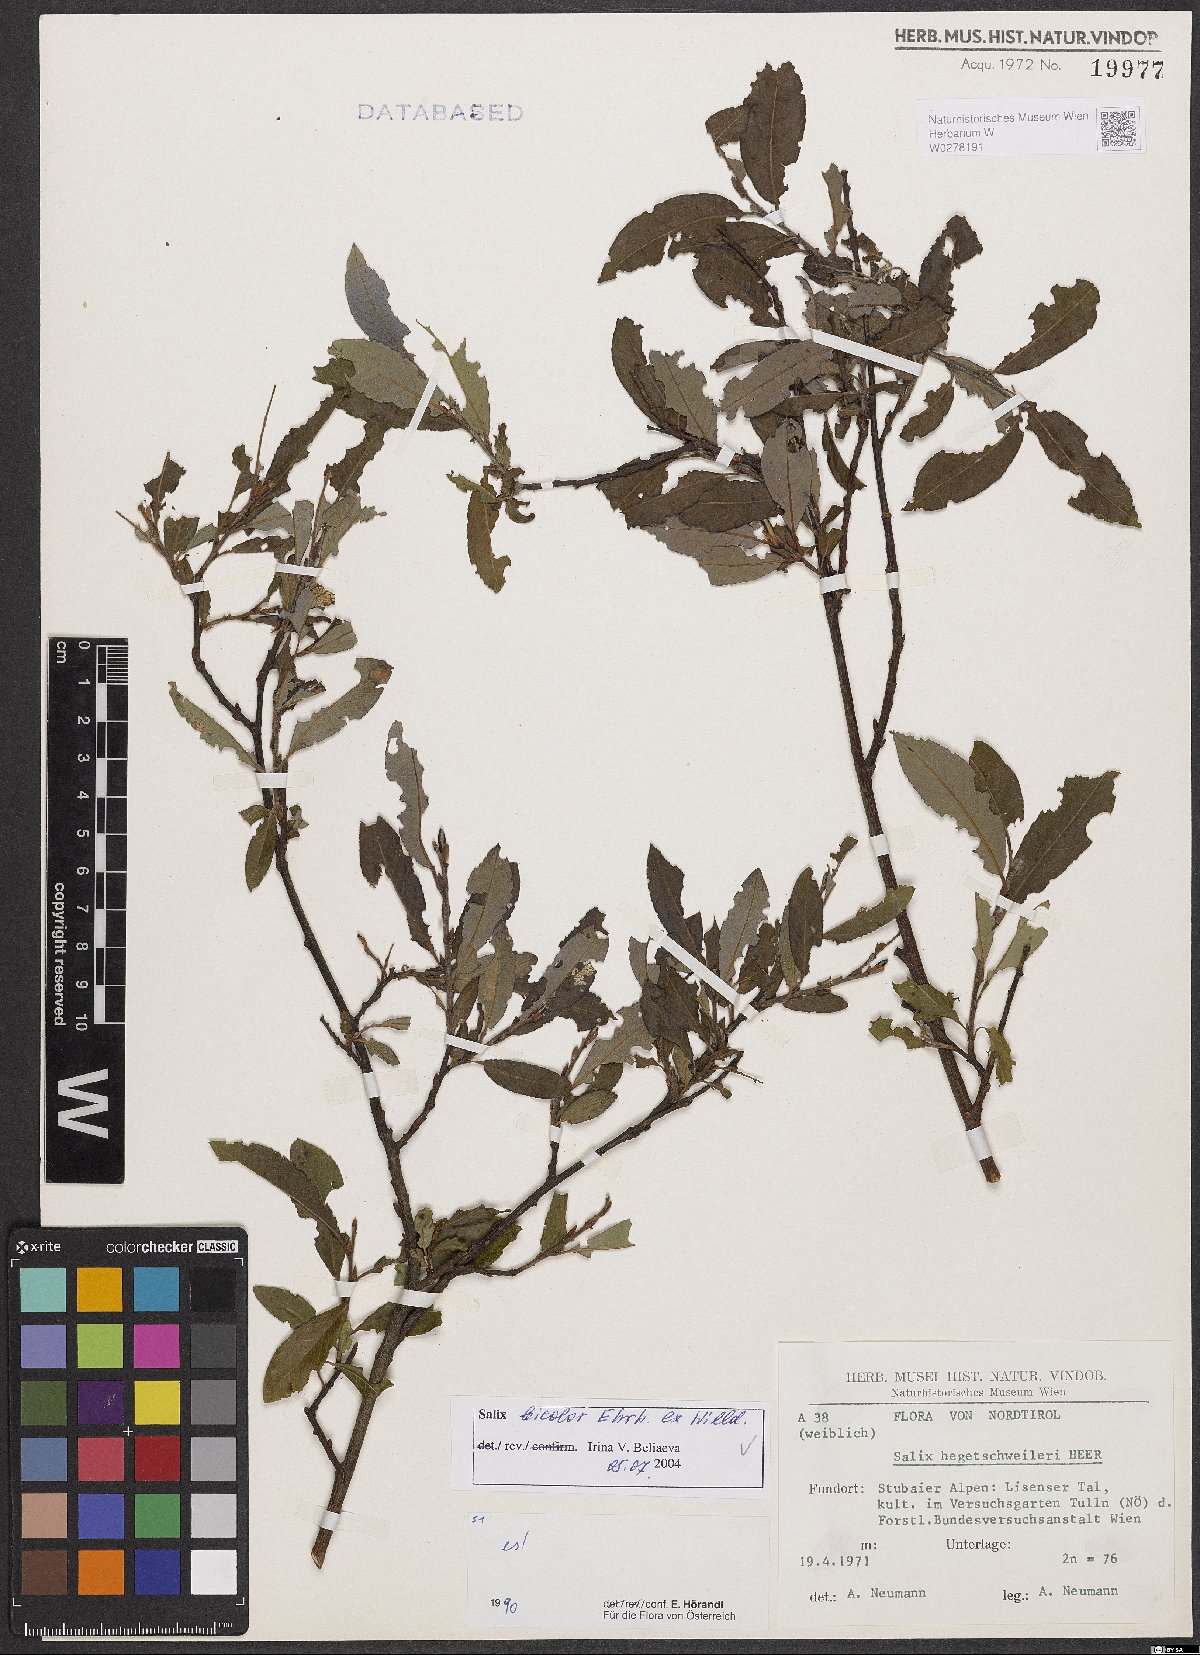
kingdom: Plantae
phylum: Tracheophyta
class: Magnoliopsida
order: Malpighiales
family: Salicaceae
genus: Salix
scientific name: Salix bicolor
